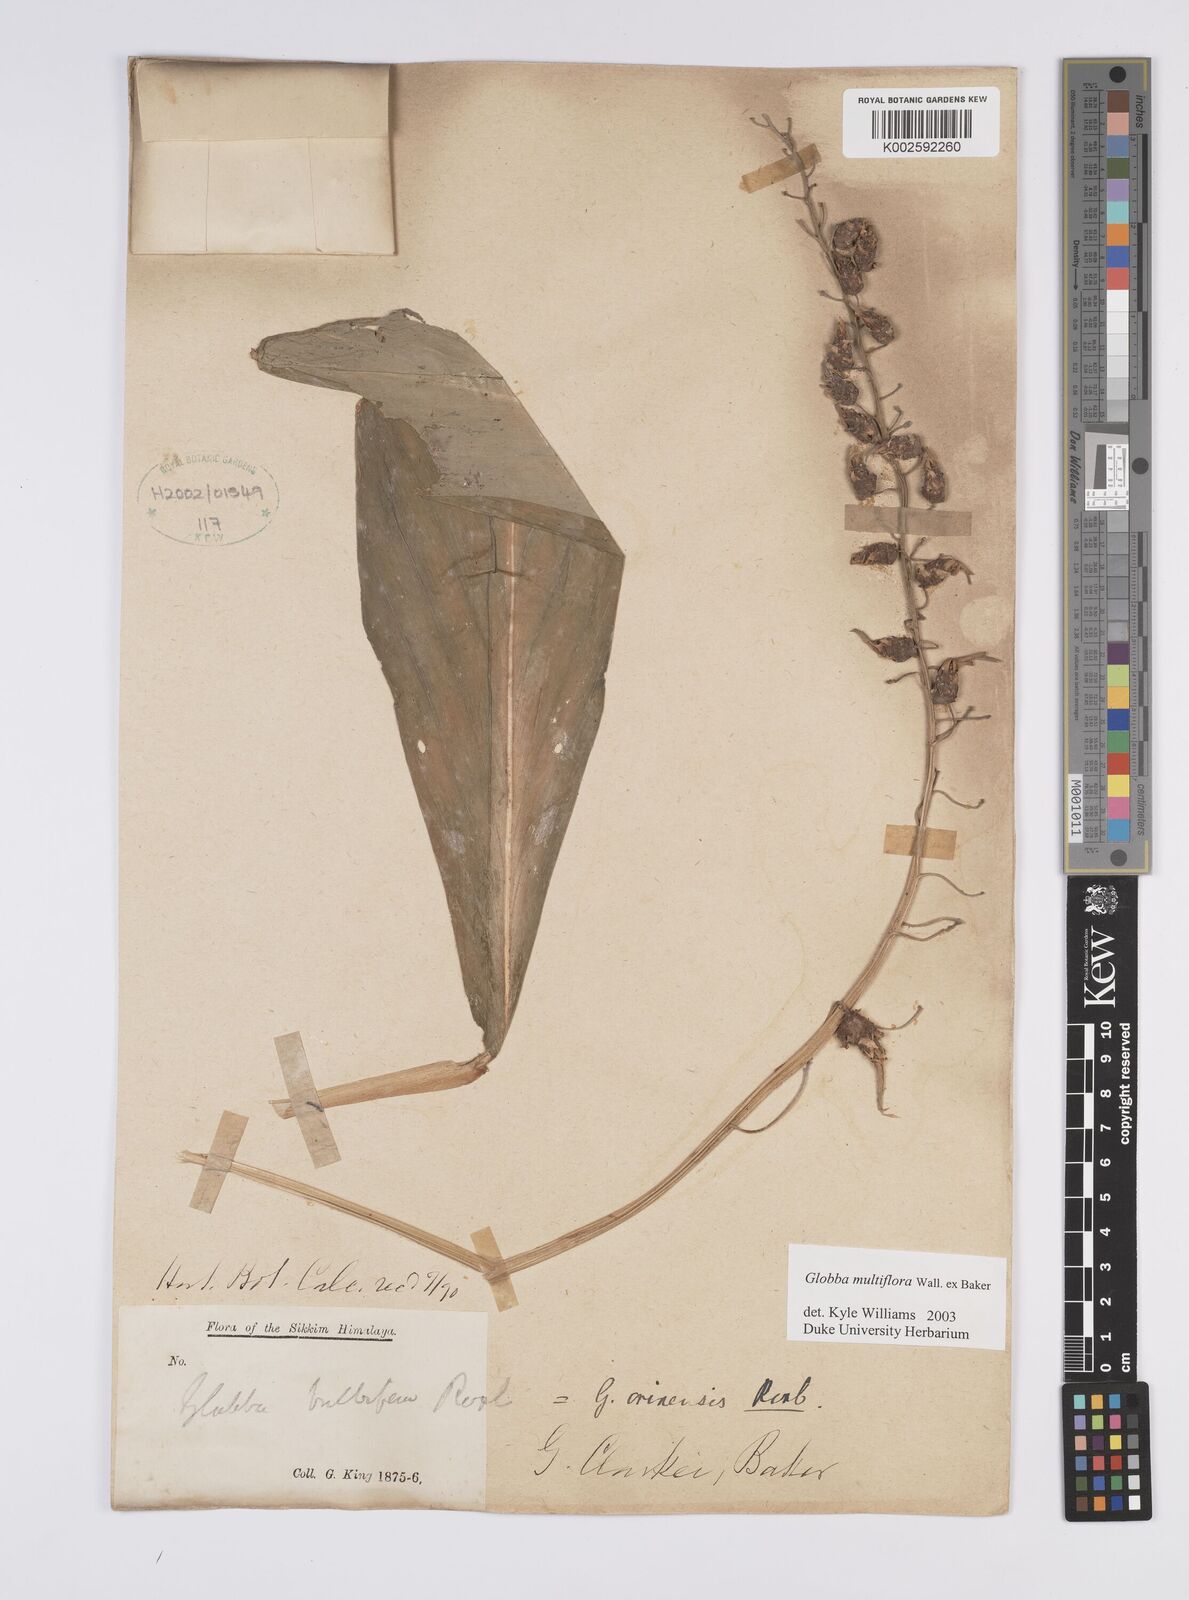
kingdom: Plantae
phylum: Tracheophyta
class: Liliopsida
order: Zingiberales
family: Zingiberaceae
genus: Globba
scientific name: Globba multiflora
